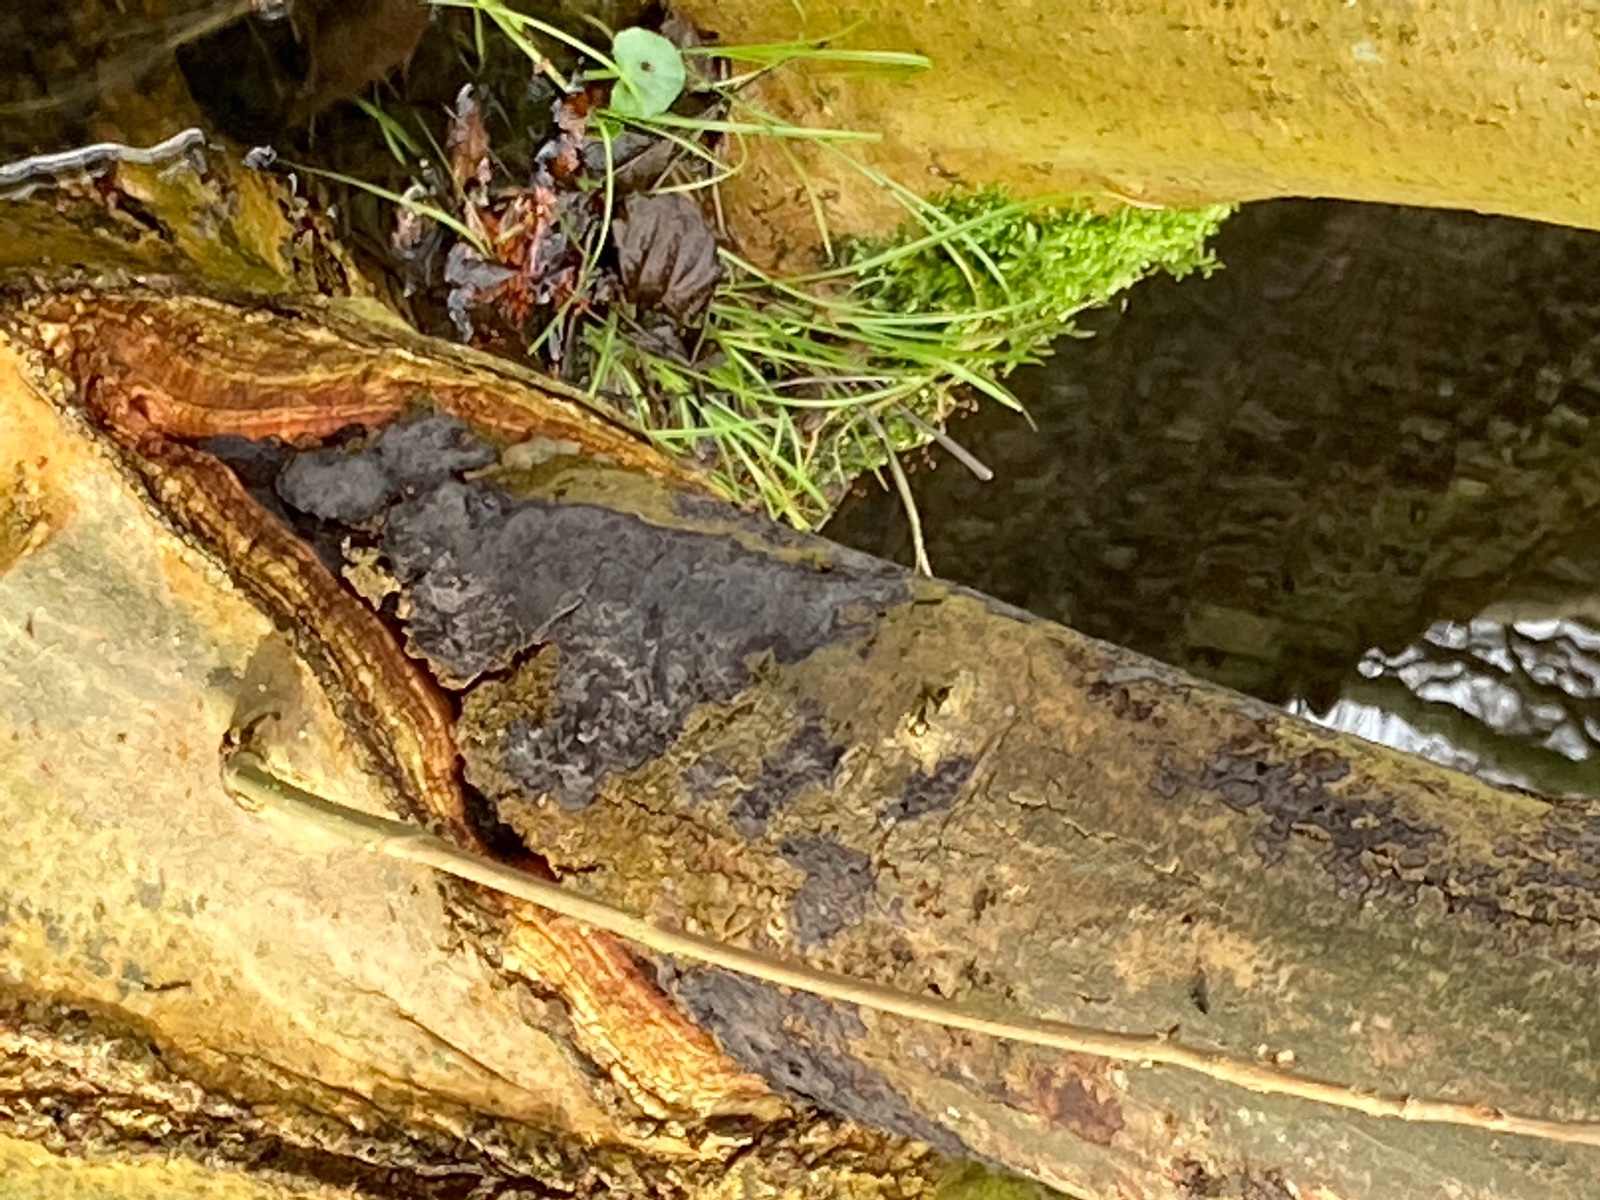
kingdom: Fungi
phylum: Basidiomycota
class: Agaricomycetes
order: Russulales
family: Peniophoraceae
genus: Peniophora
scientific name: Peniophora limitata
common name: mørkrandet voksskind
